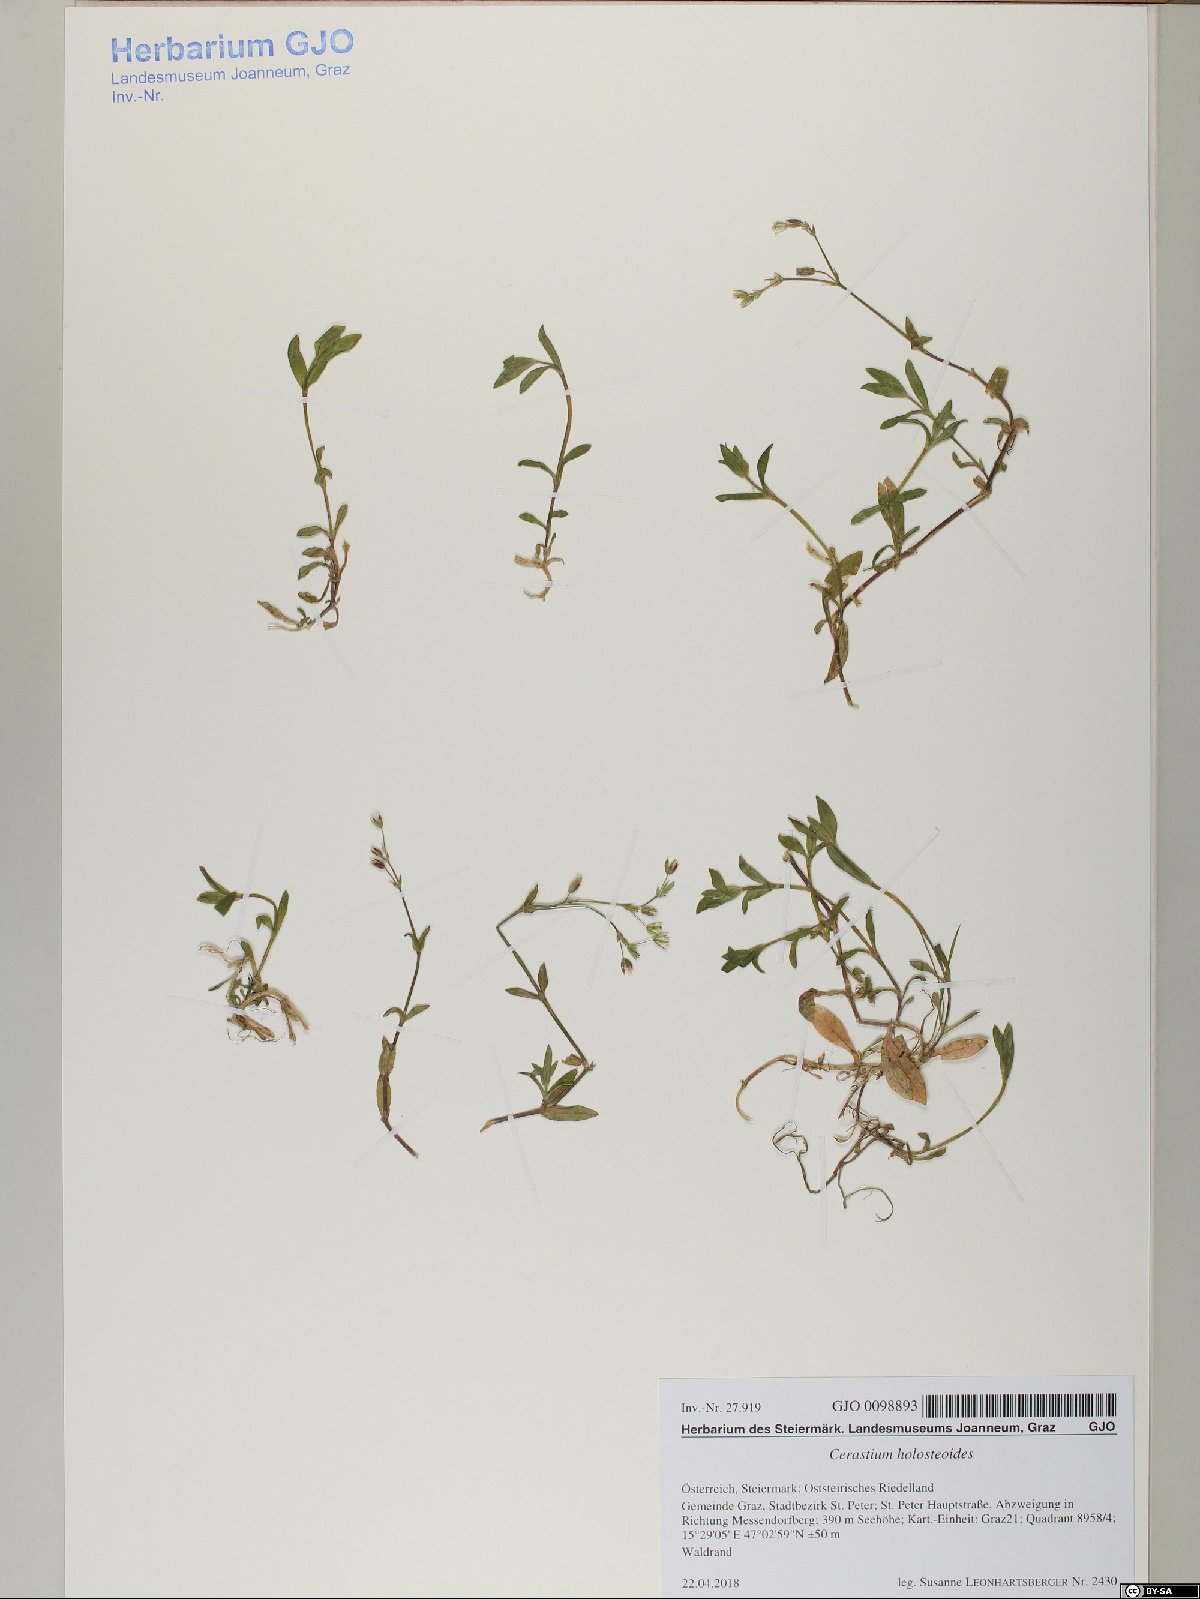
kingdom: Plantae
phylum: Tracheophyta
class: Magnoliopsida
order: Caryophyllales
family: Caryophyllaceae
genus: Cerastium
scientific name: Cerastium holosteoides
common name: Big chickweed
